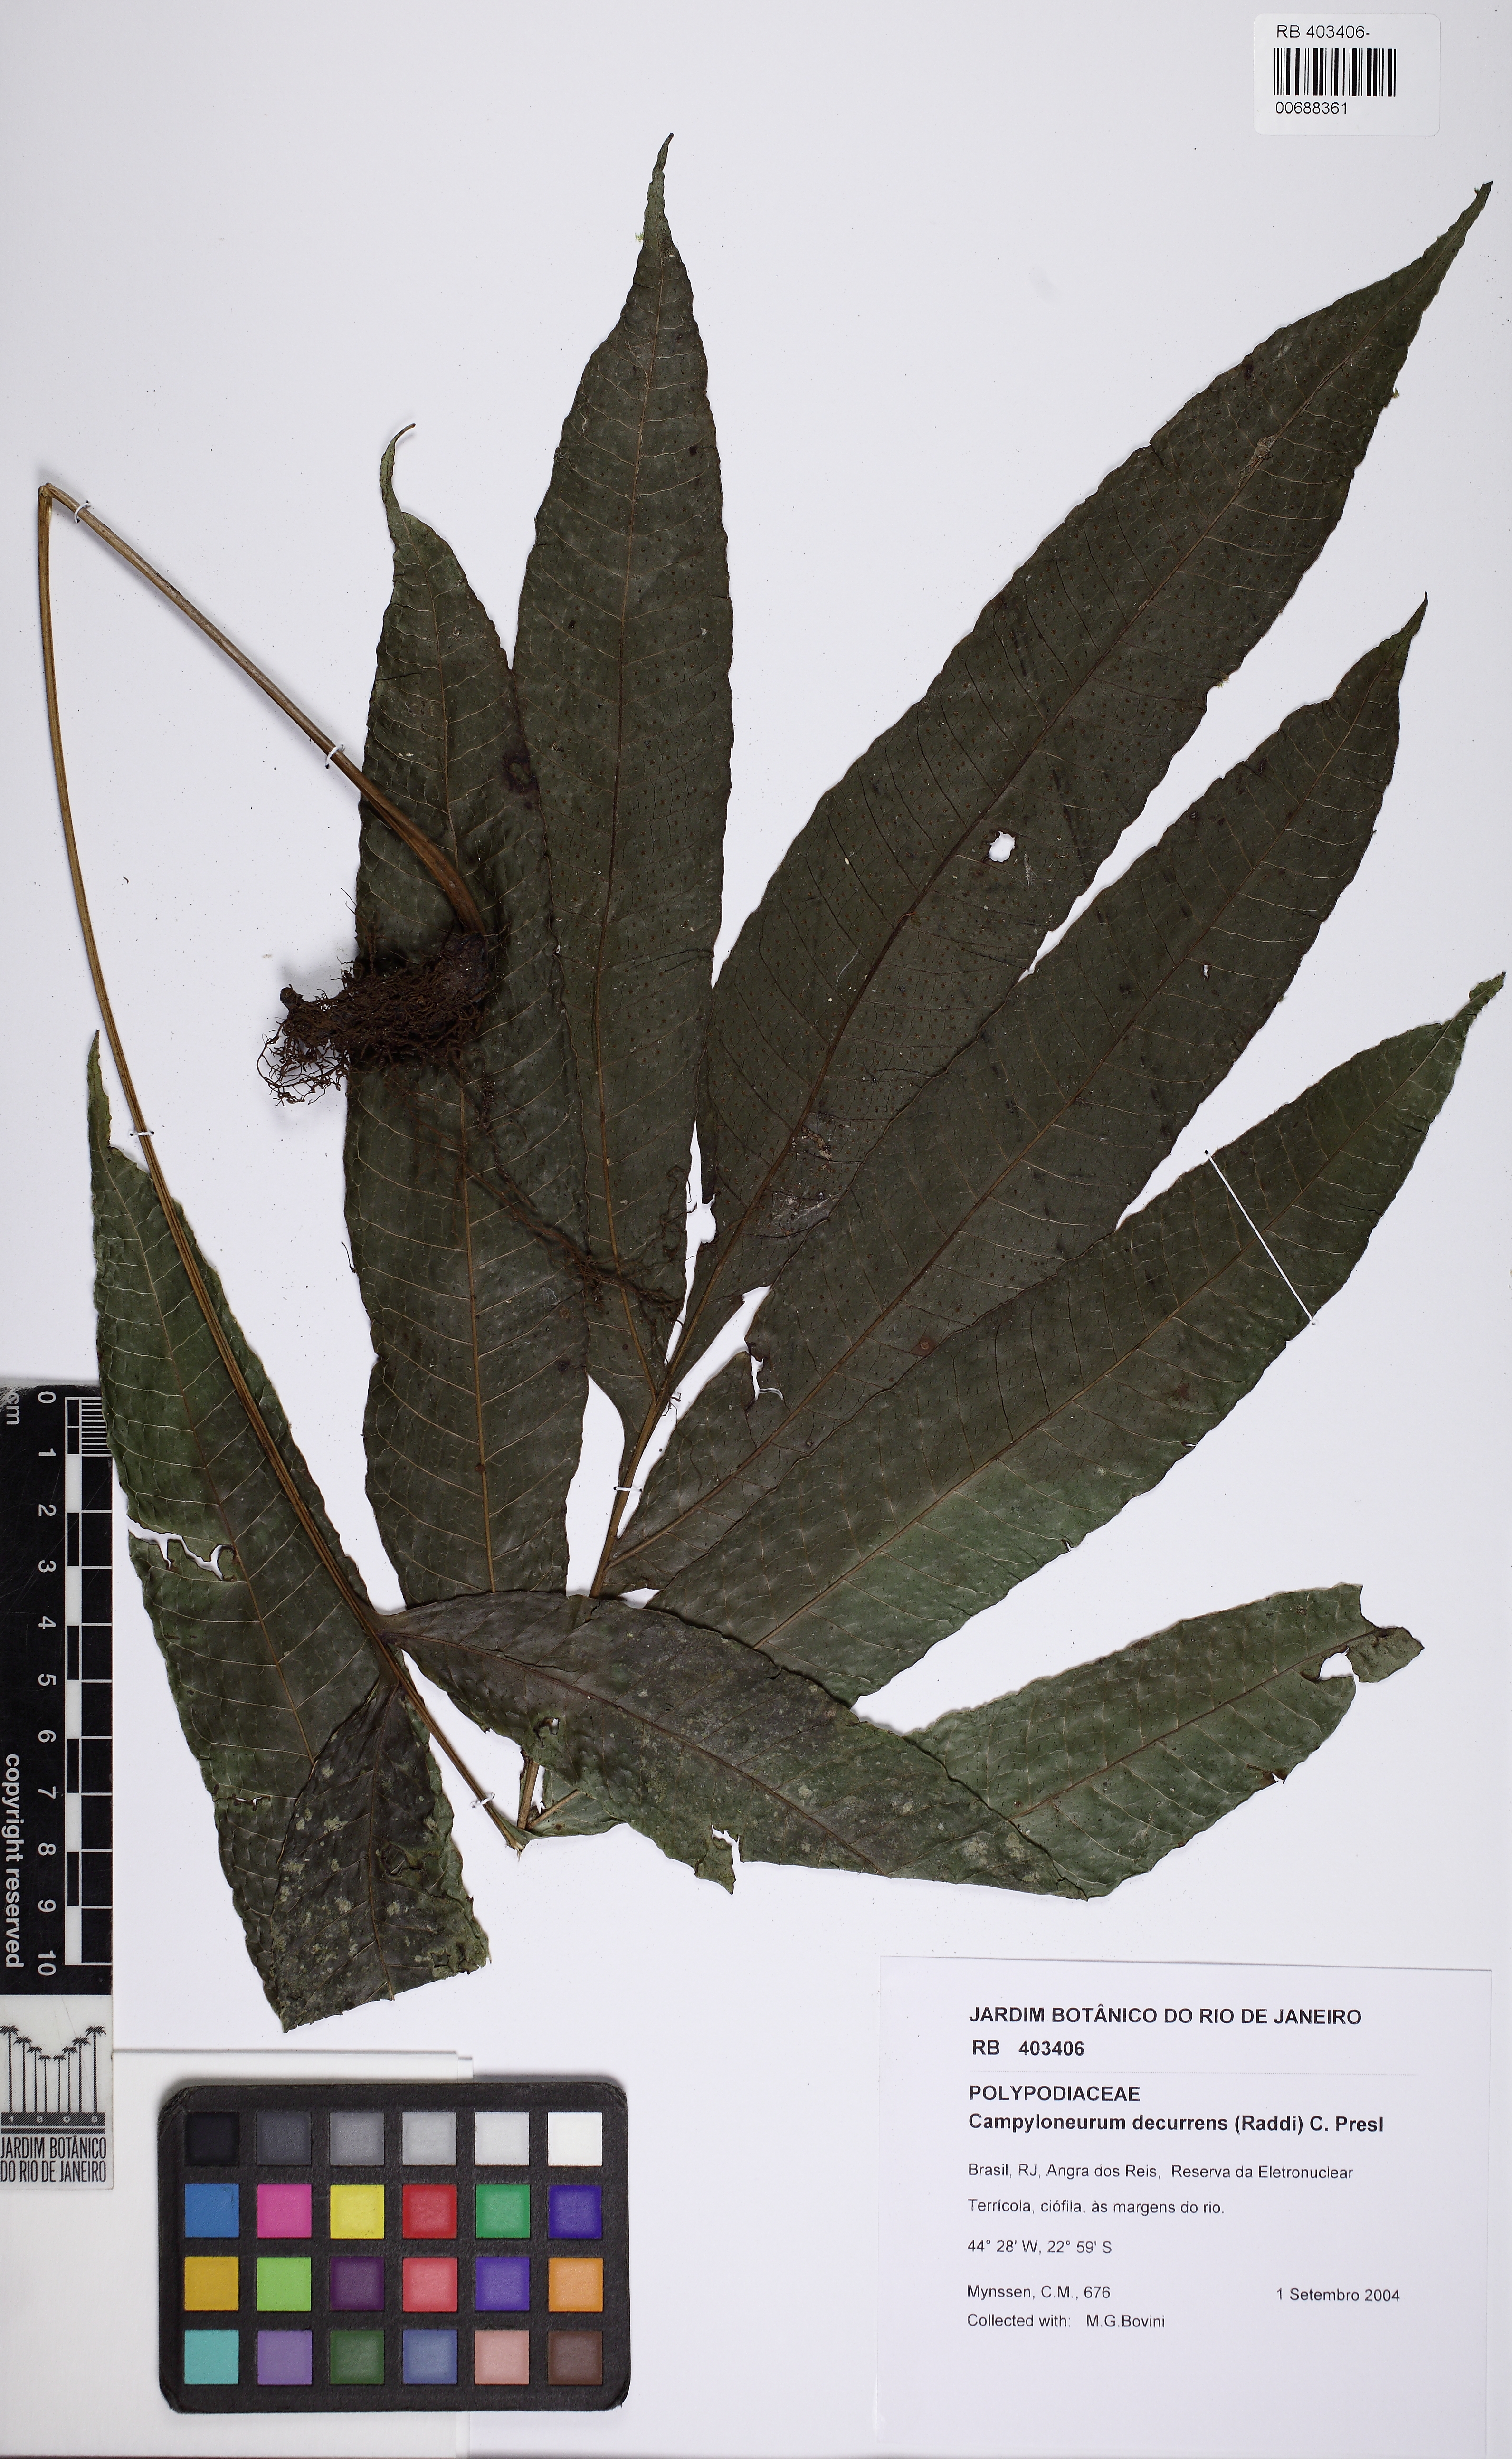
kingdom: Plantae
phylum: Tracheophyta
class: Polypodiopsida
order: Polypodiales
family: Polypodiaceae
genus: Campyloneurum
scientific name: Campyloneurum decurrens
